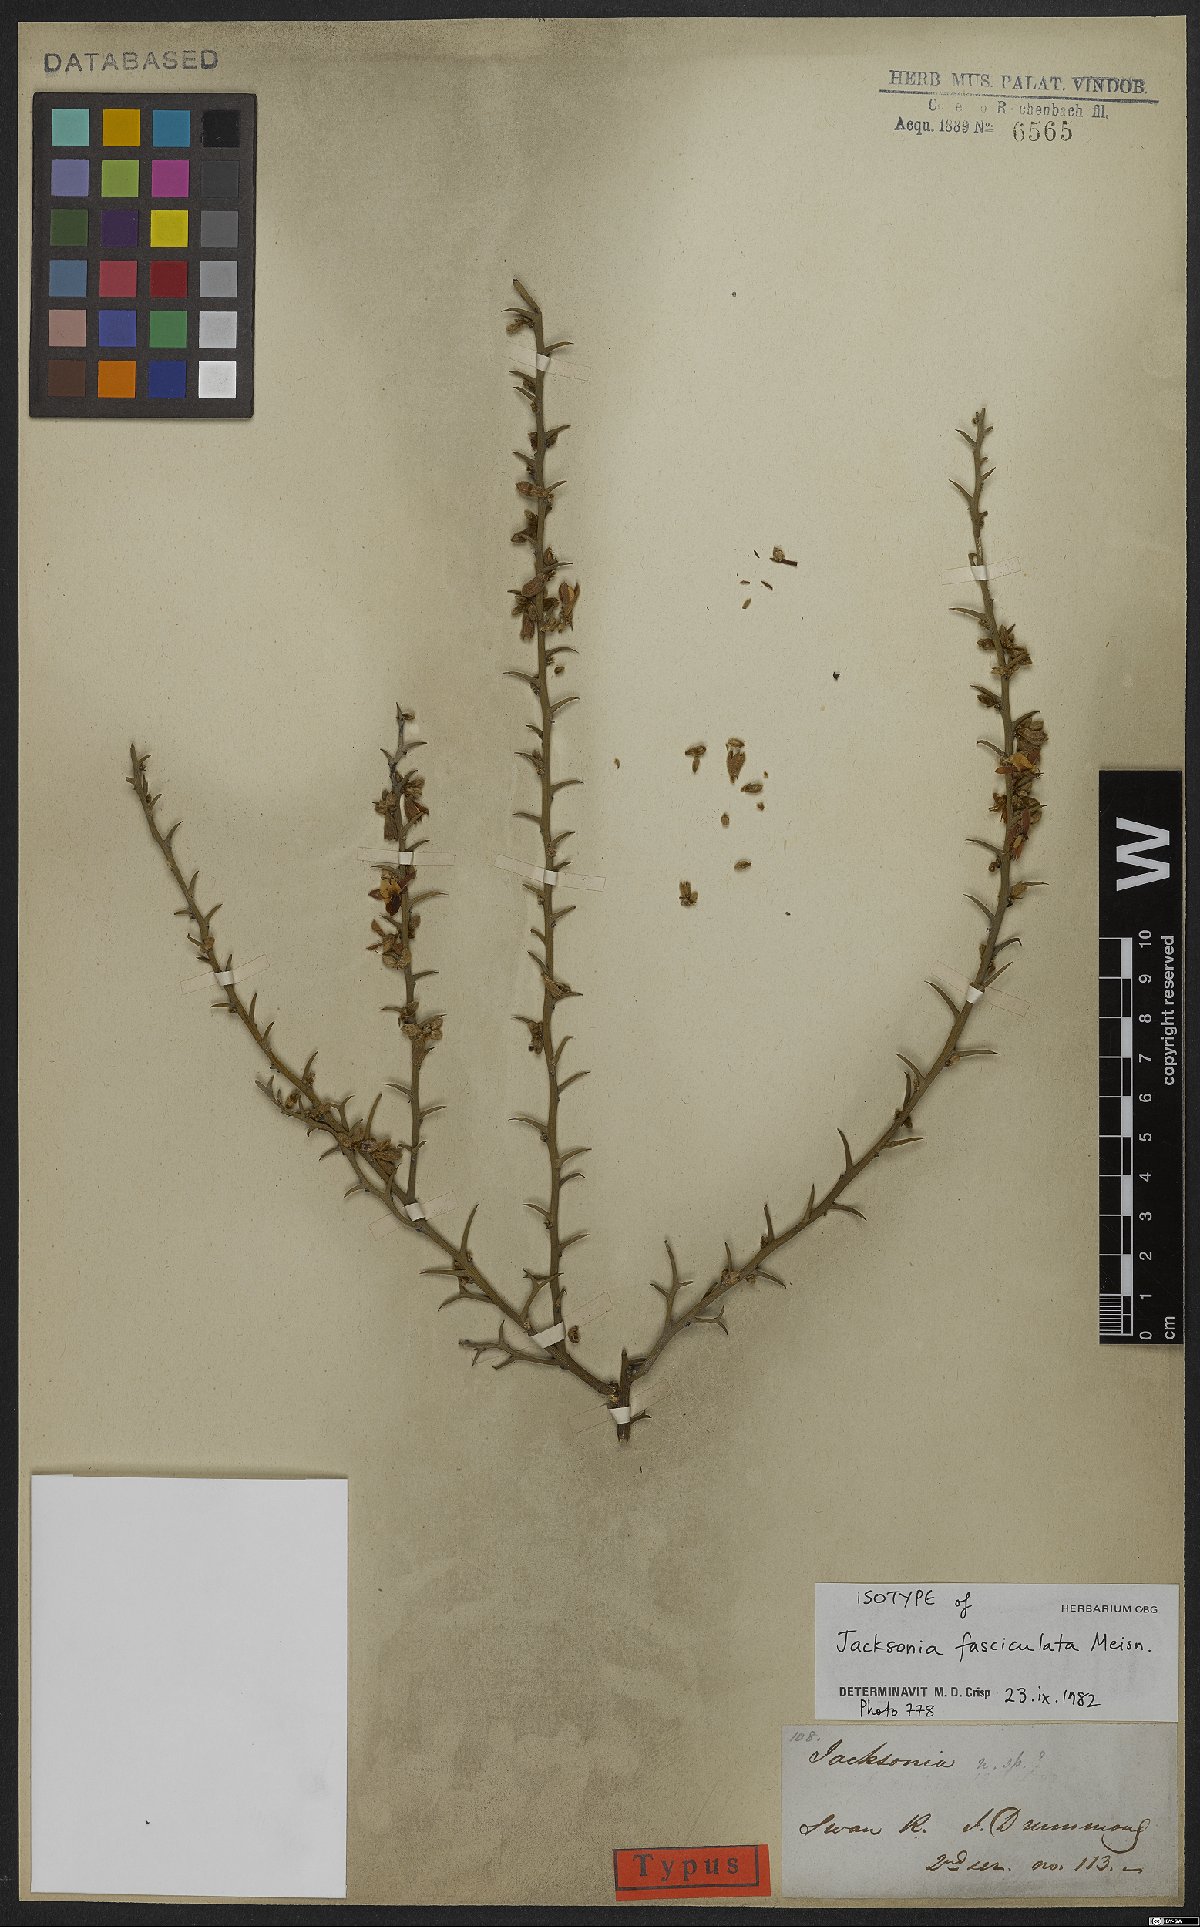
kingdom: Plantae
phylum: Tracheophyta
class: Magnoliopsida
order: Fabales
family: Fabaceae
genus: Jacksonia
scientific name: Jacksonia fasciculata
